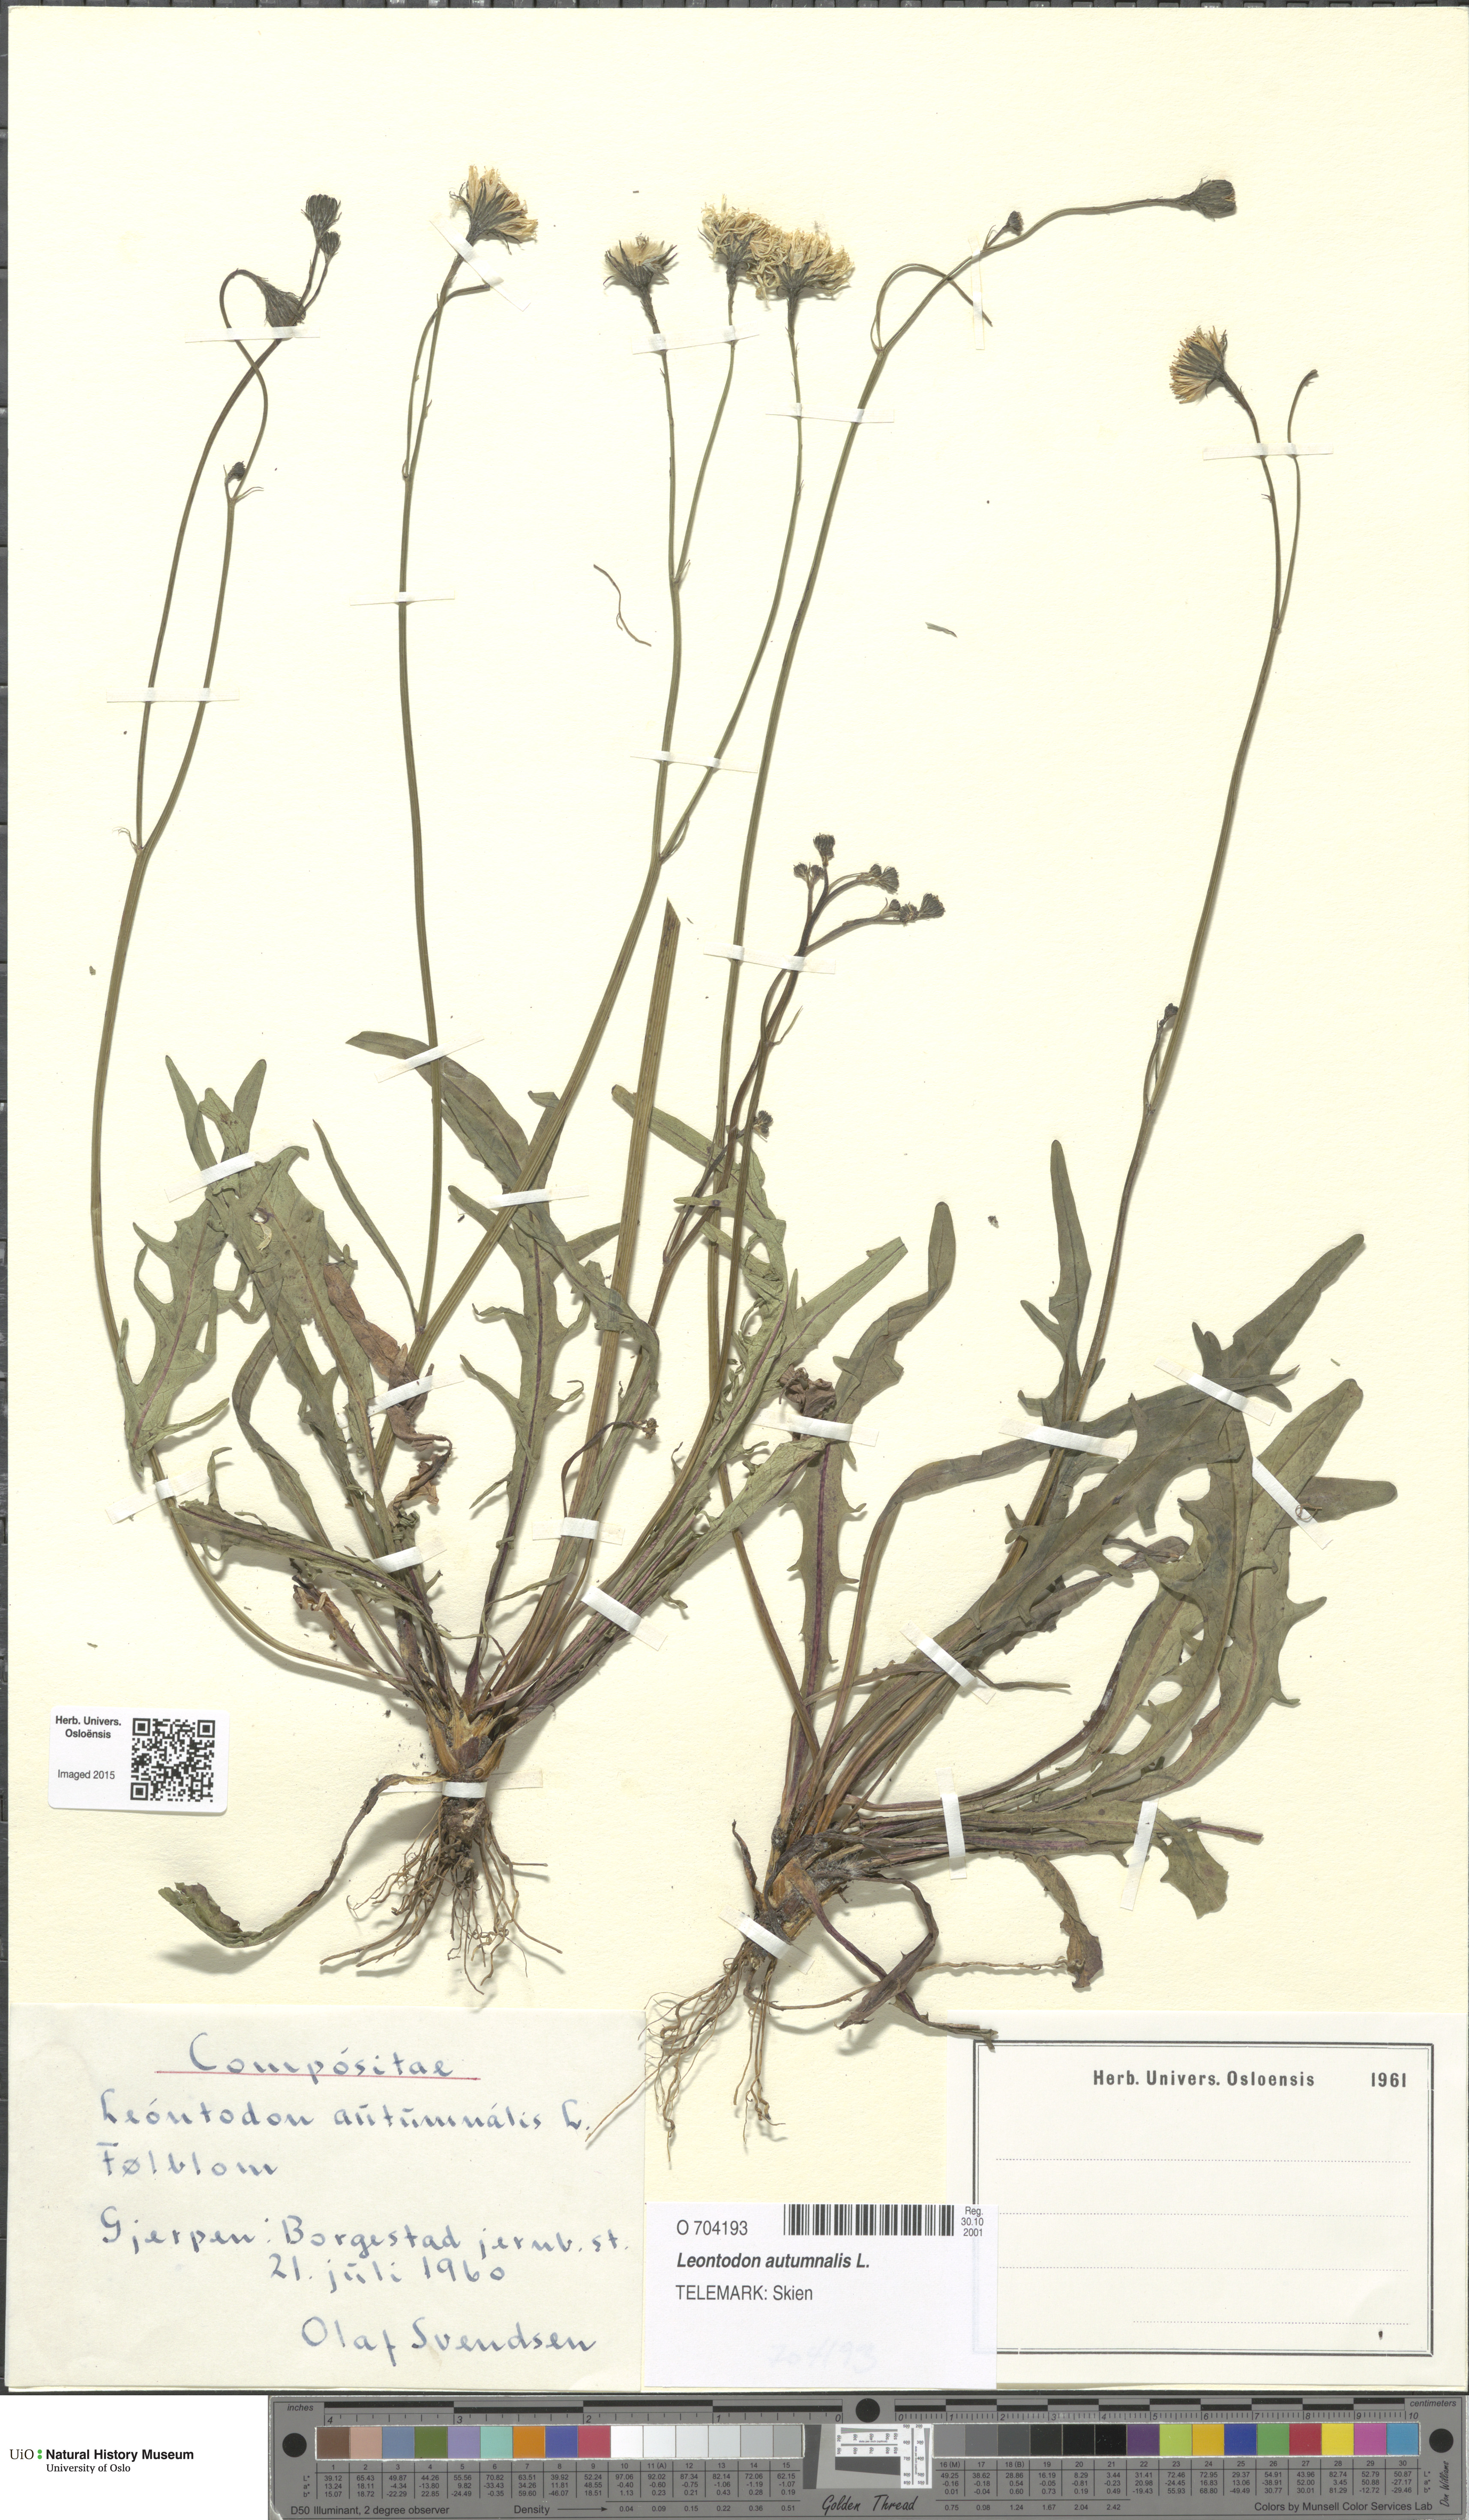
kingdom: Plantae
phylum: Tracheophyta
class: Magnoliopsida
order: Asterales
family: Asteraceae
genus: Scorzoneroides
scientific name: Scorzoneroides autumnalis
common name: Autumn hawkbit
